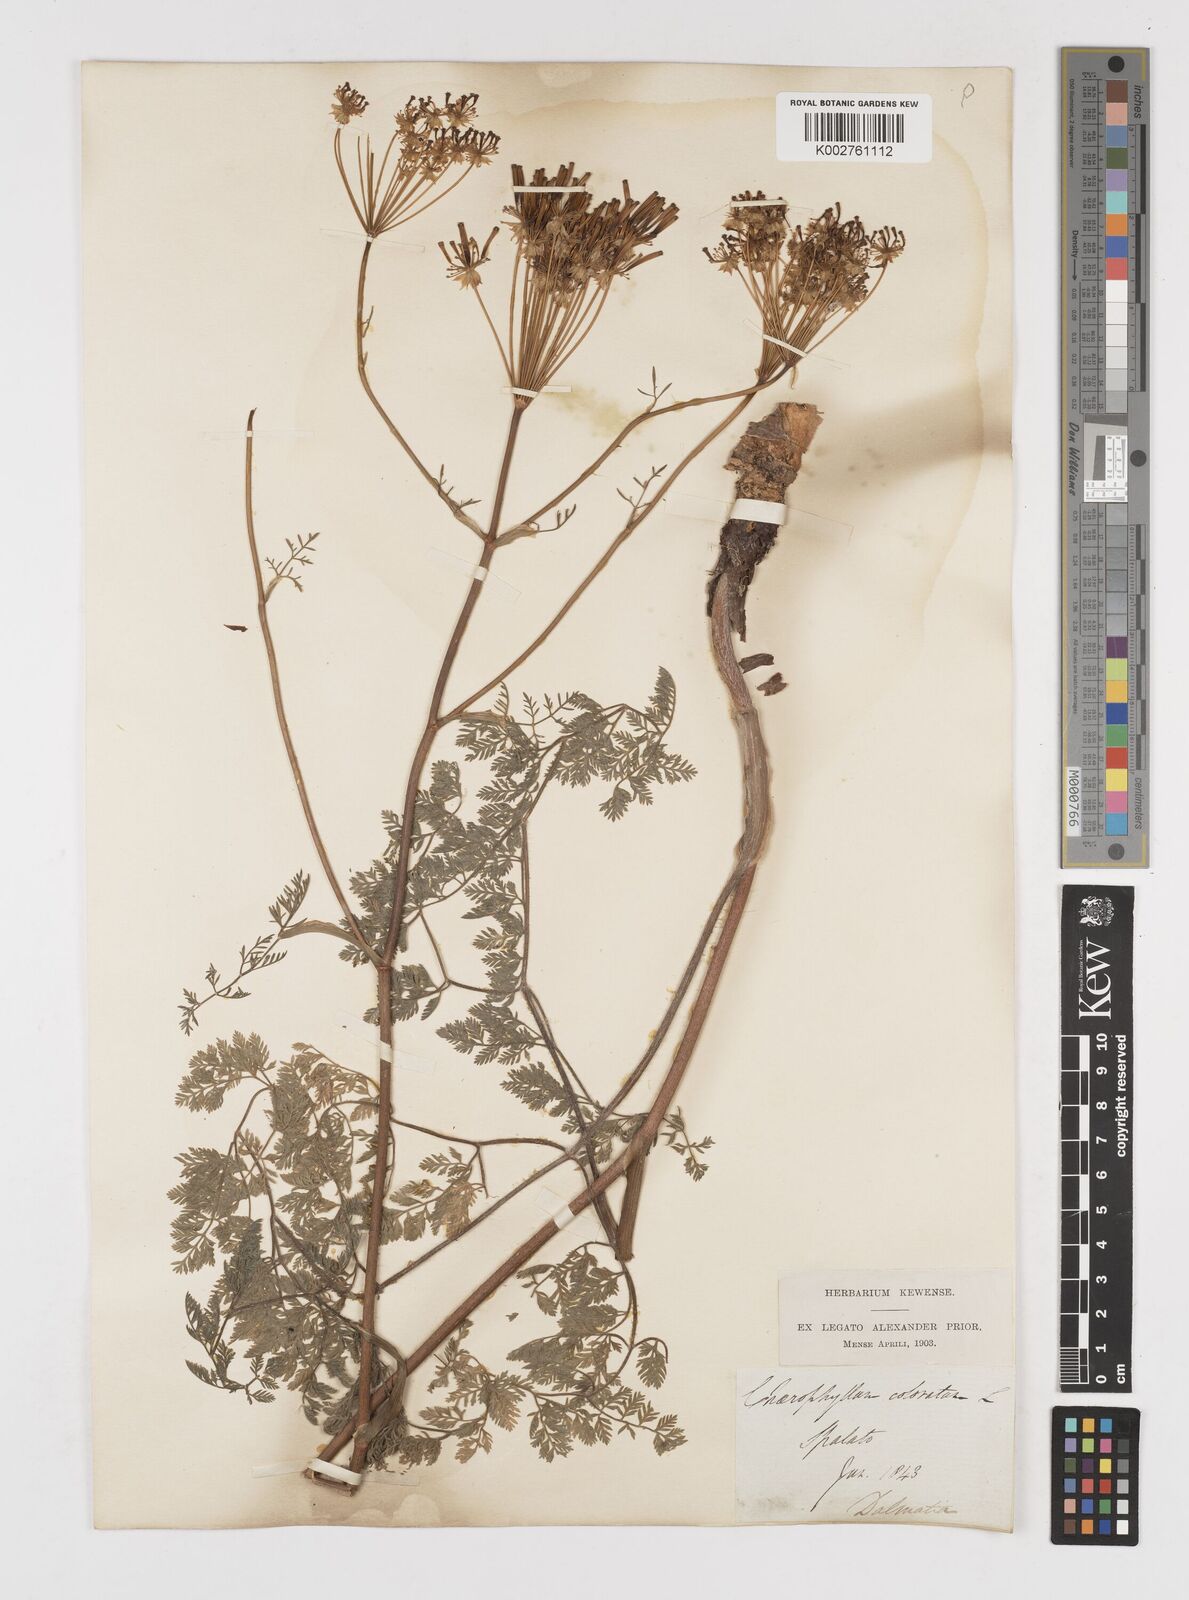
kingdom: Plantae
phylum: Tracheophyta
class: Magnoliopsida
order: Apiales
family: Apiaceae
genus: Chaerophyllum
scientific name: Chaerophyllum coloratum
